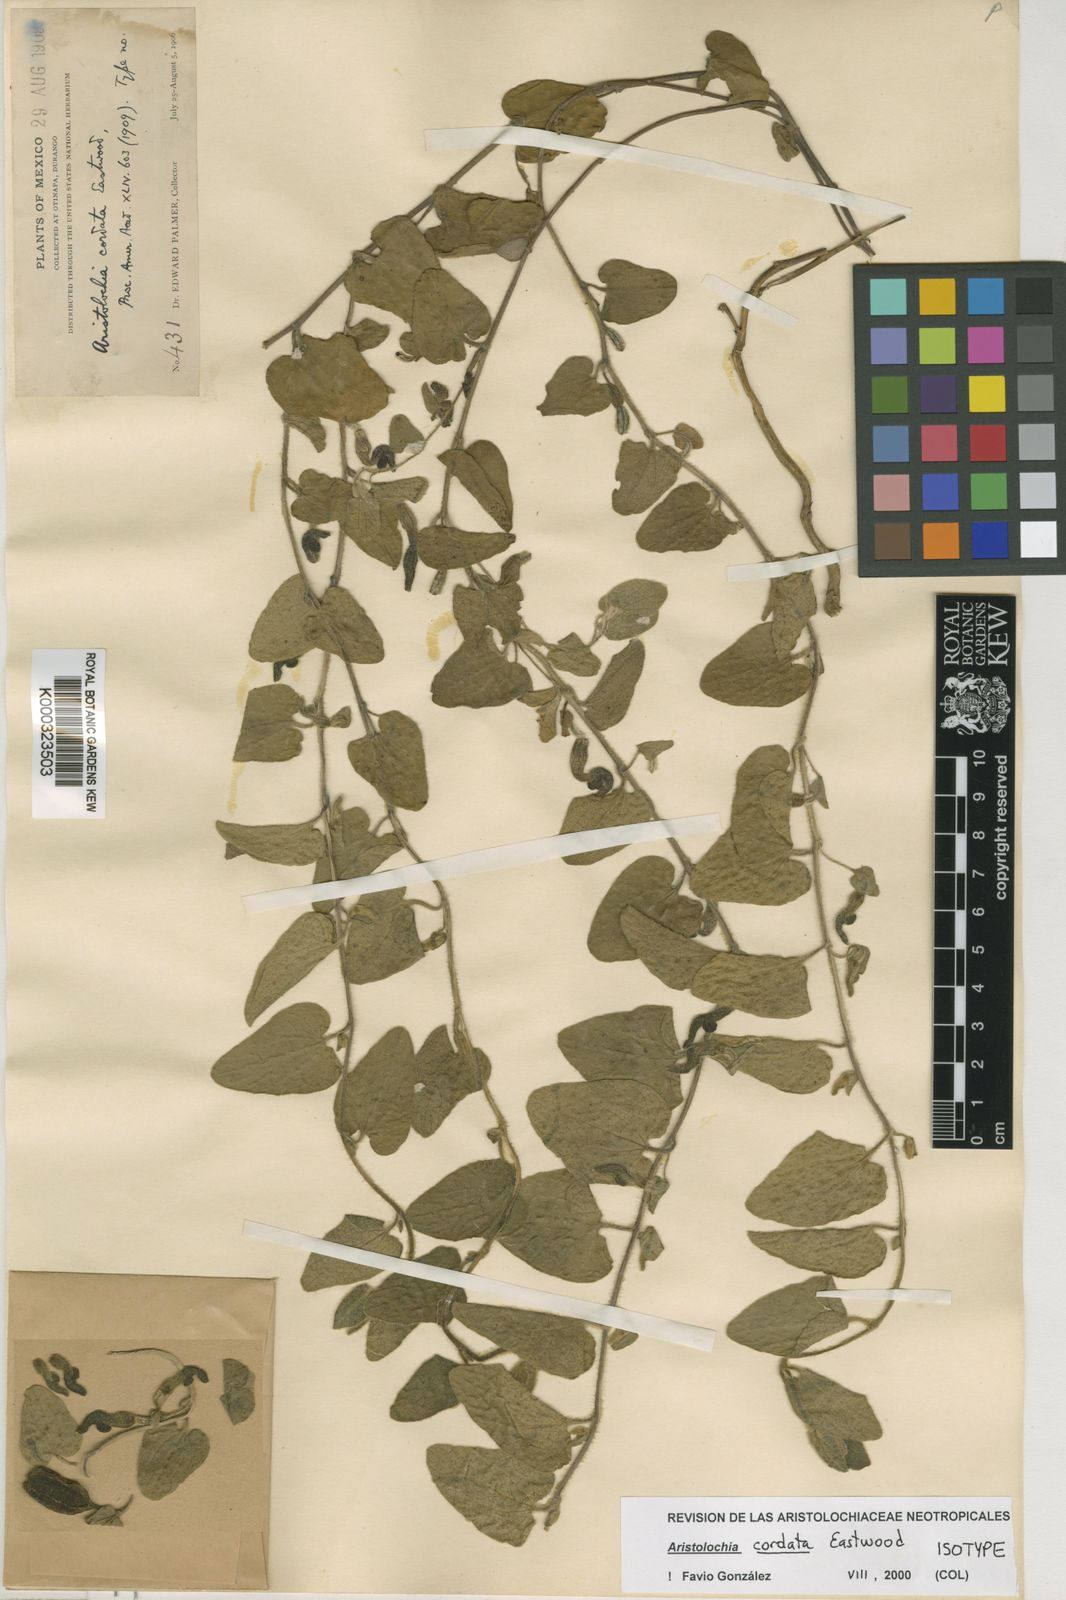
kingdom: Plantae
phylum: Tracheophyta
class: Magnoliopsida
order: Piperales
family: Aristolochiaceae
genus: Aristolochia
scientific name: Aristolochia albopilosa
